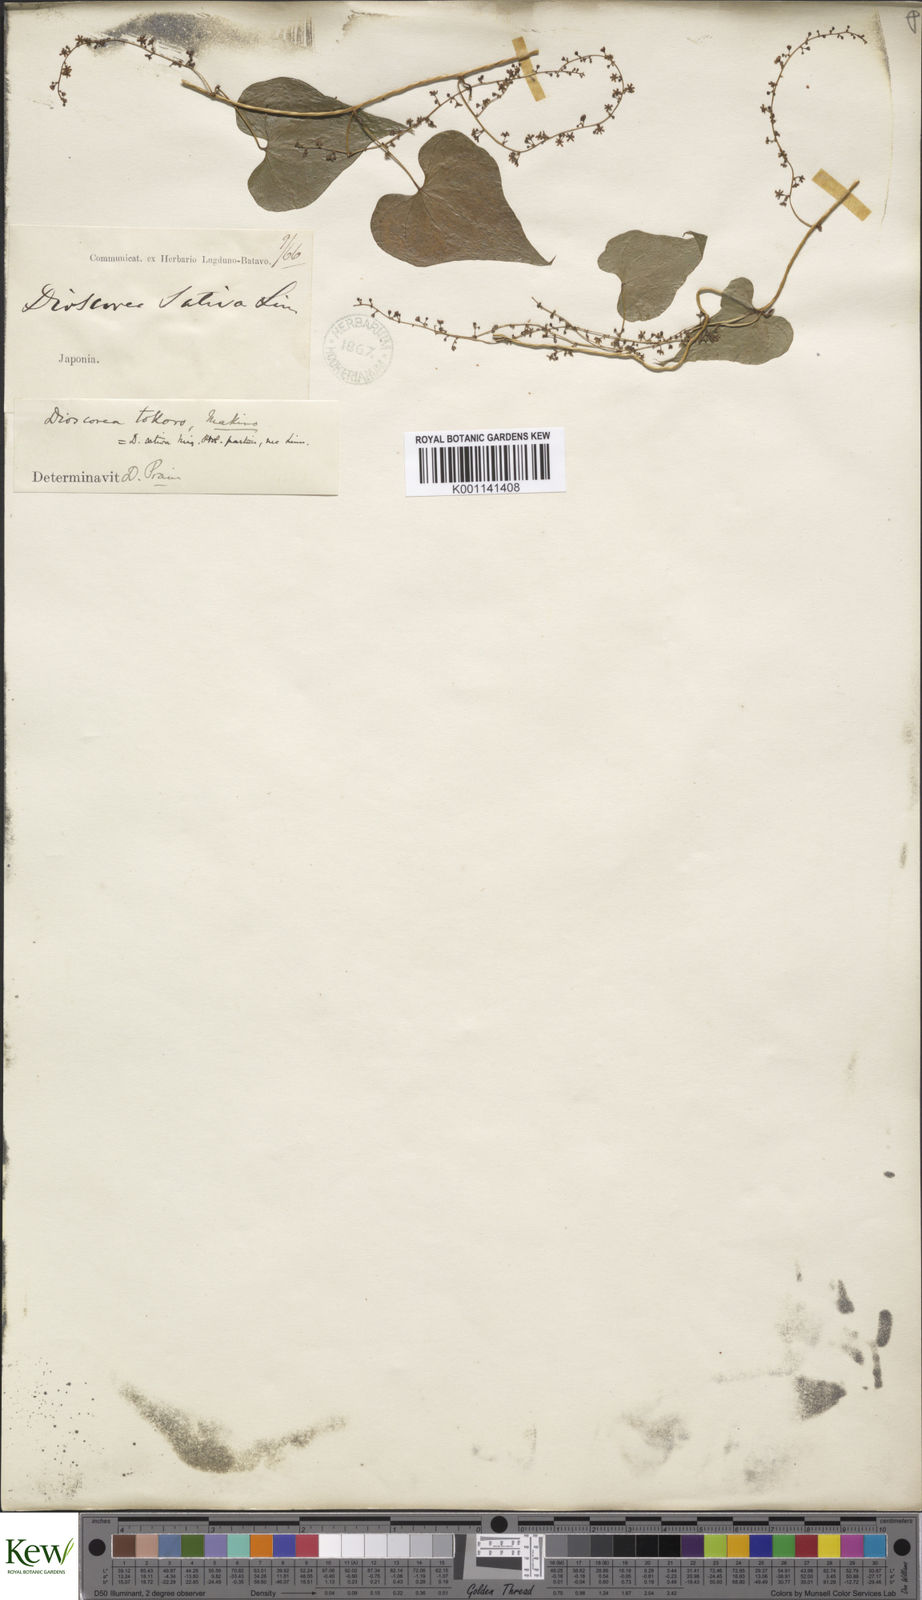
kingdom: Plantae
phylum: Tracheophyta
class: Liliopsida
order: Dioscoreales
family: Dioscoreaceae
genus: Dioscorea
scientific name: Dioscorea tokoro
